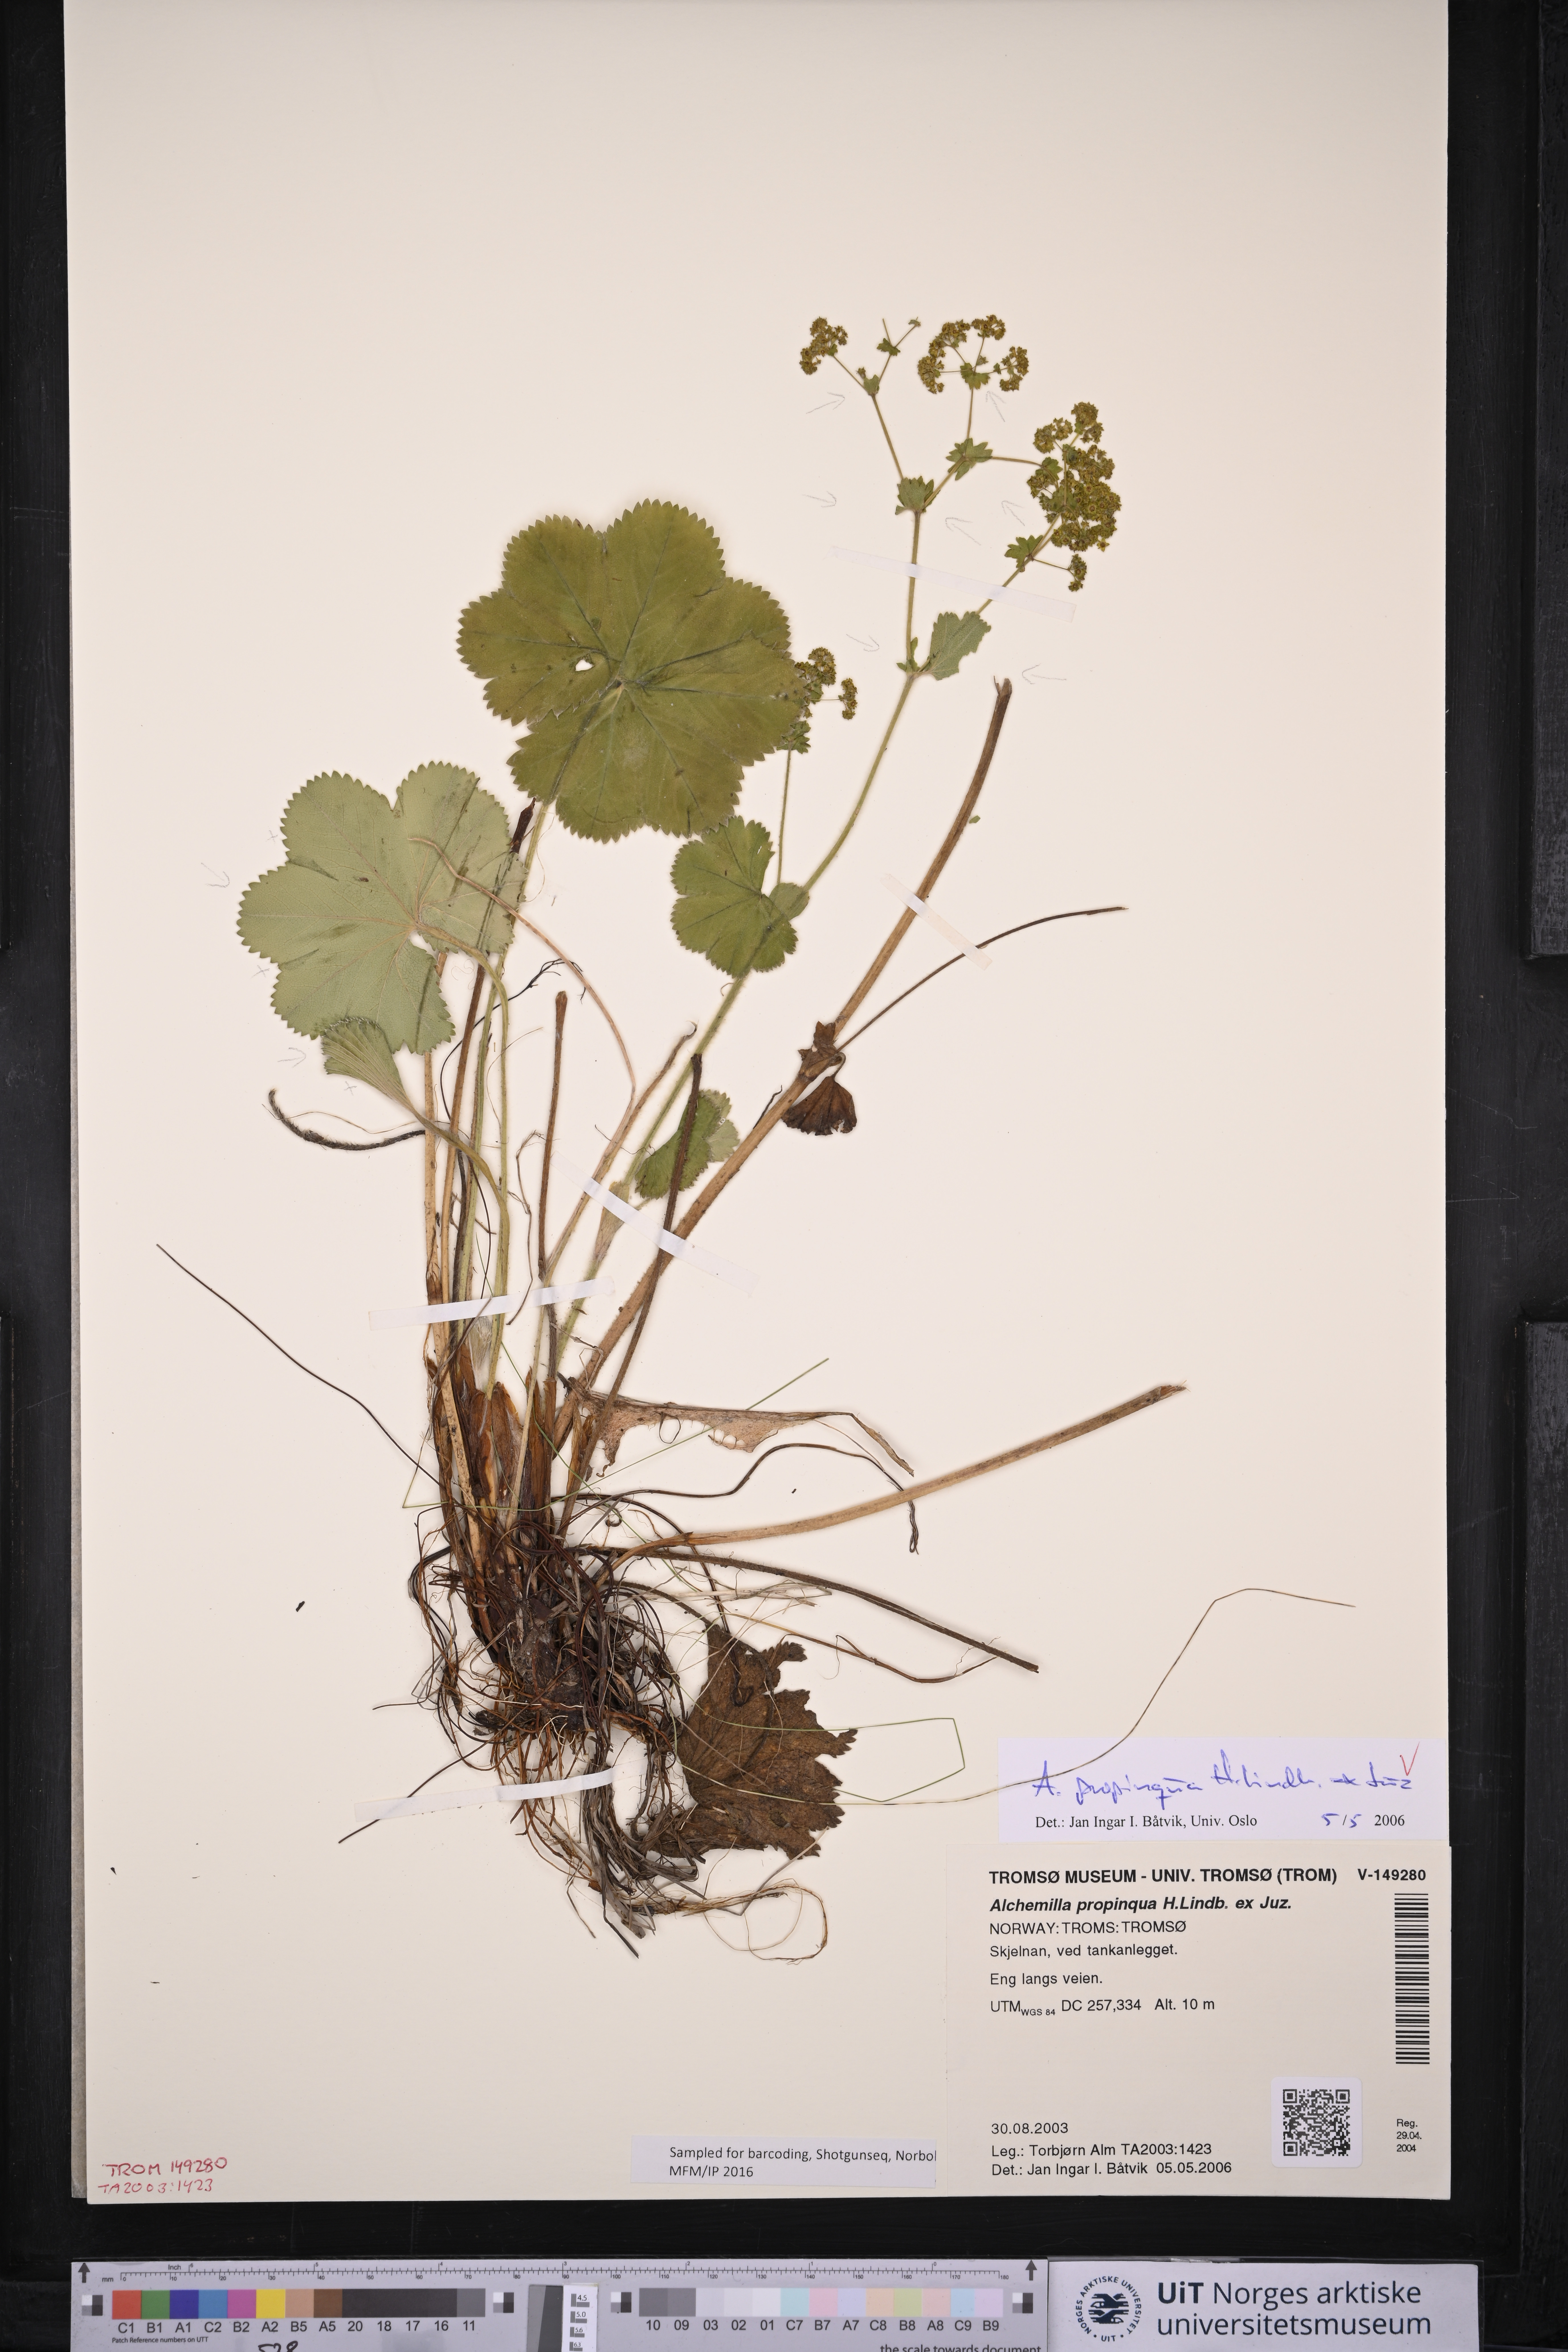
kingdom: Plantae
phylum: Tracheophyta
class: Magnoliopsida
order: Rosales
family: Rosaceae
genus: Alchemilla
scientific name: Alchemilla propinqua
